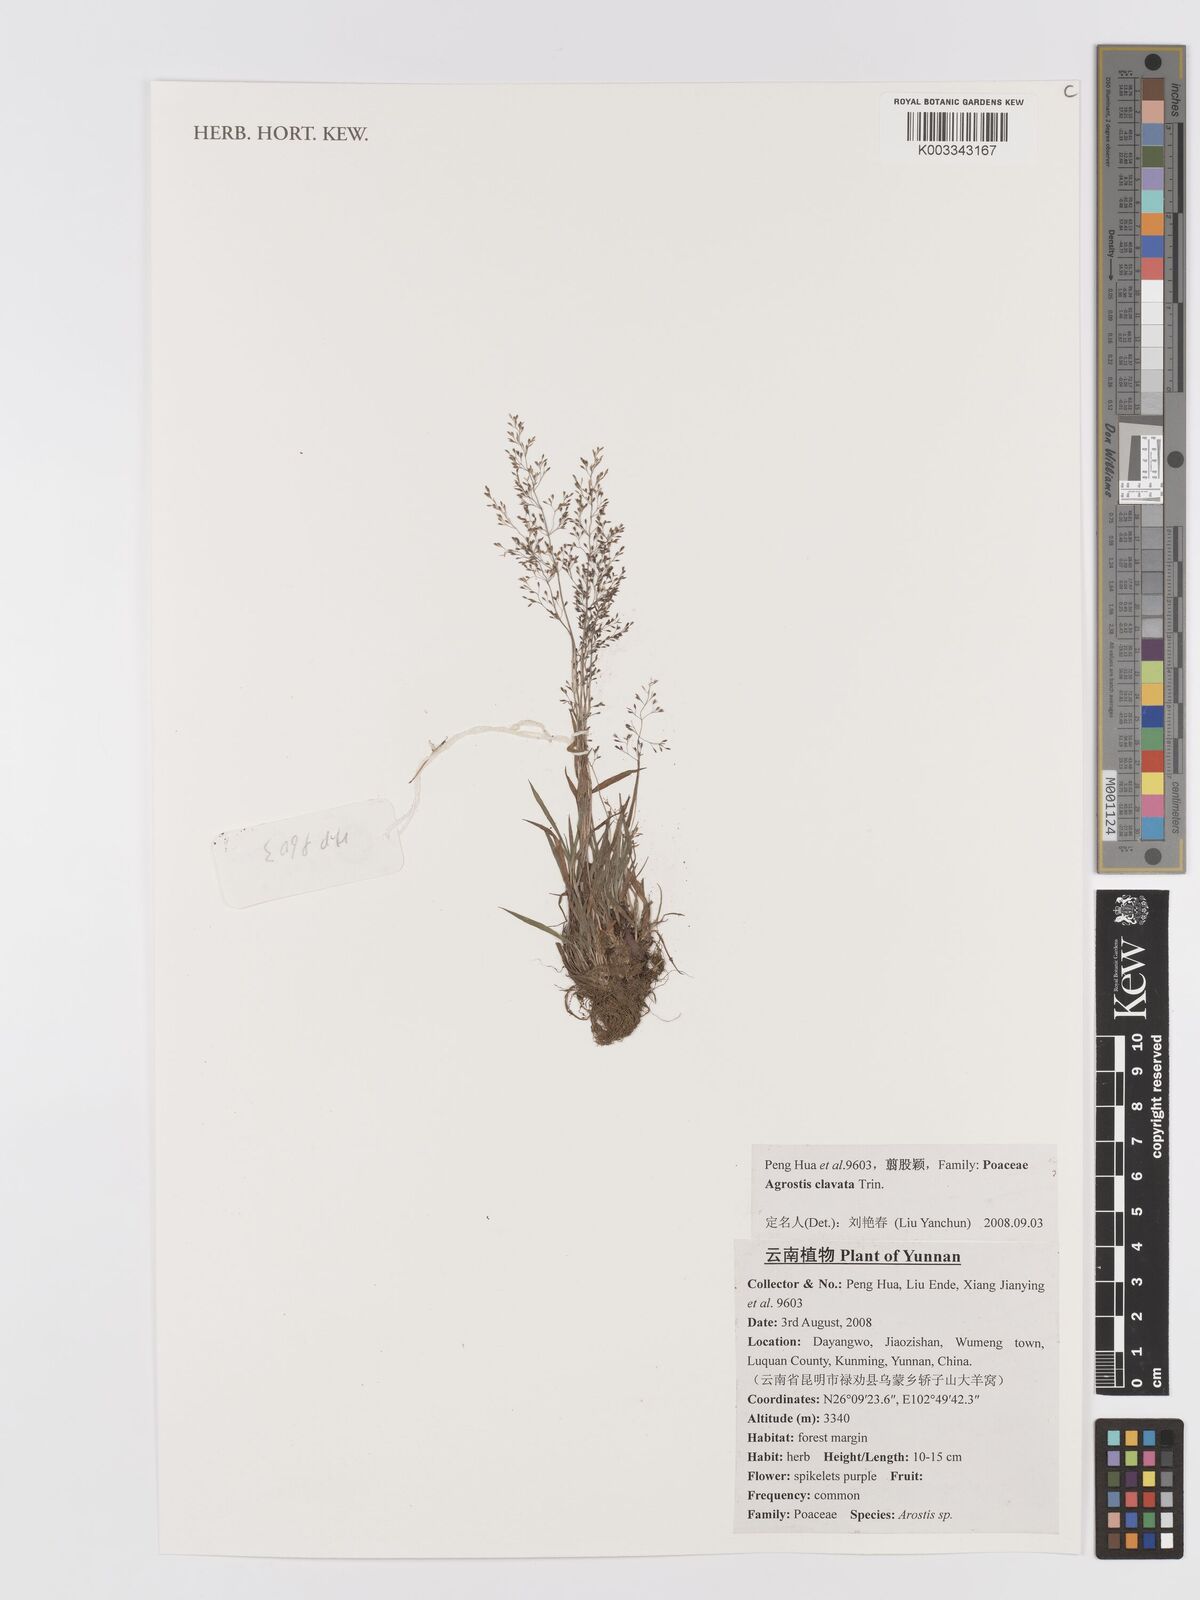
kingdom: Plantae
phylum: Tracheophyta
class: Liliopsida
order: Poales
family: Poaceae
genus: Agrostis
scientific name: Agrostis clavata
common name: Clavate bent
